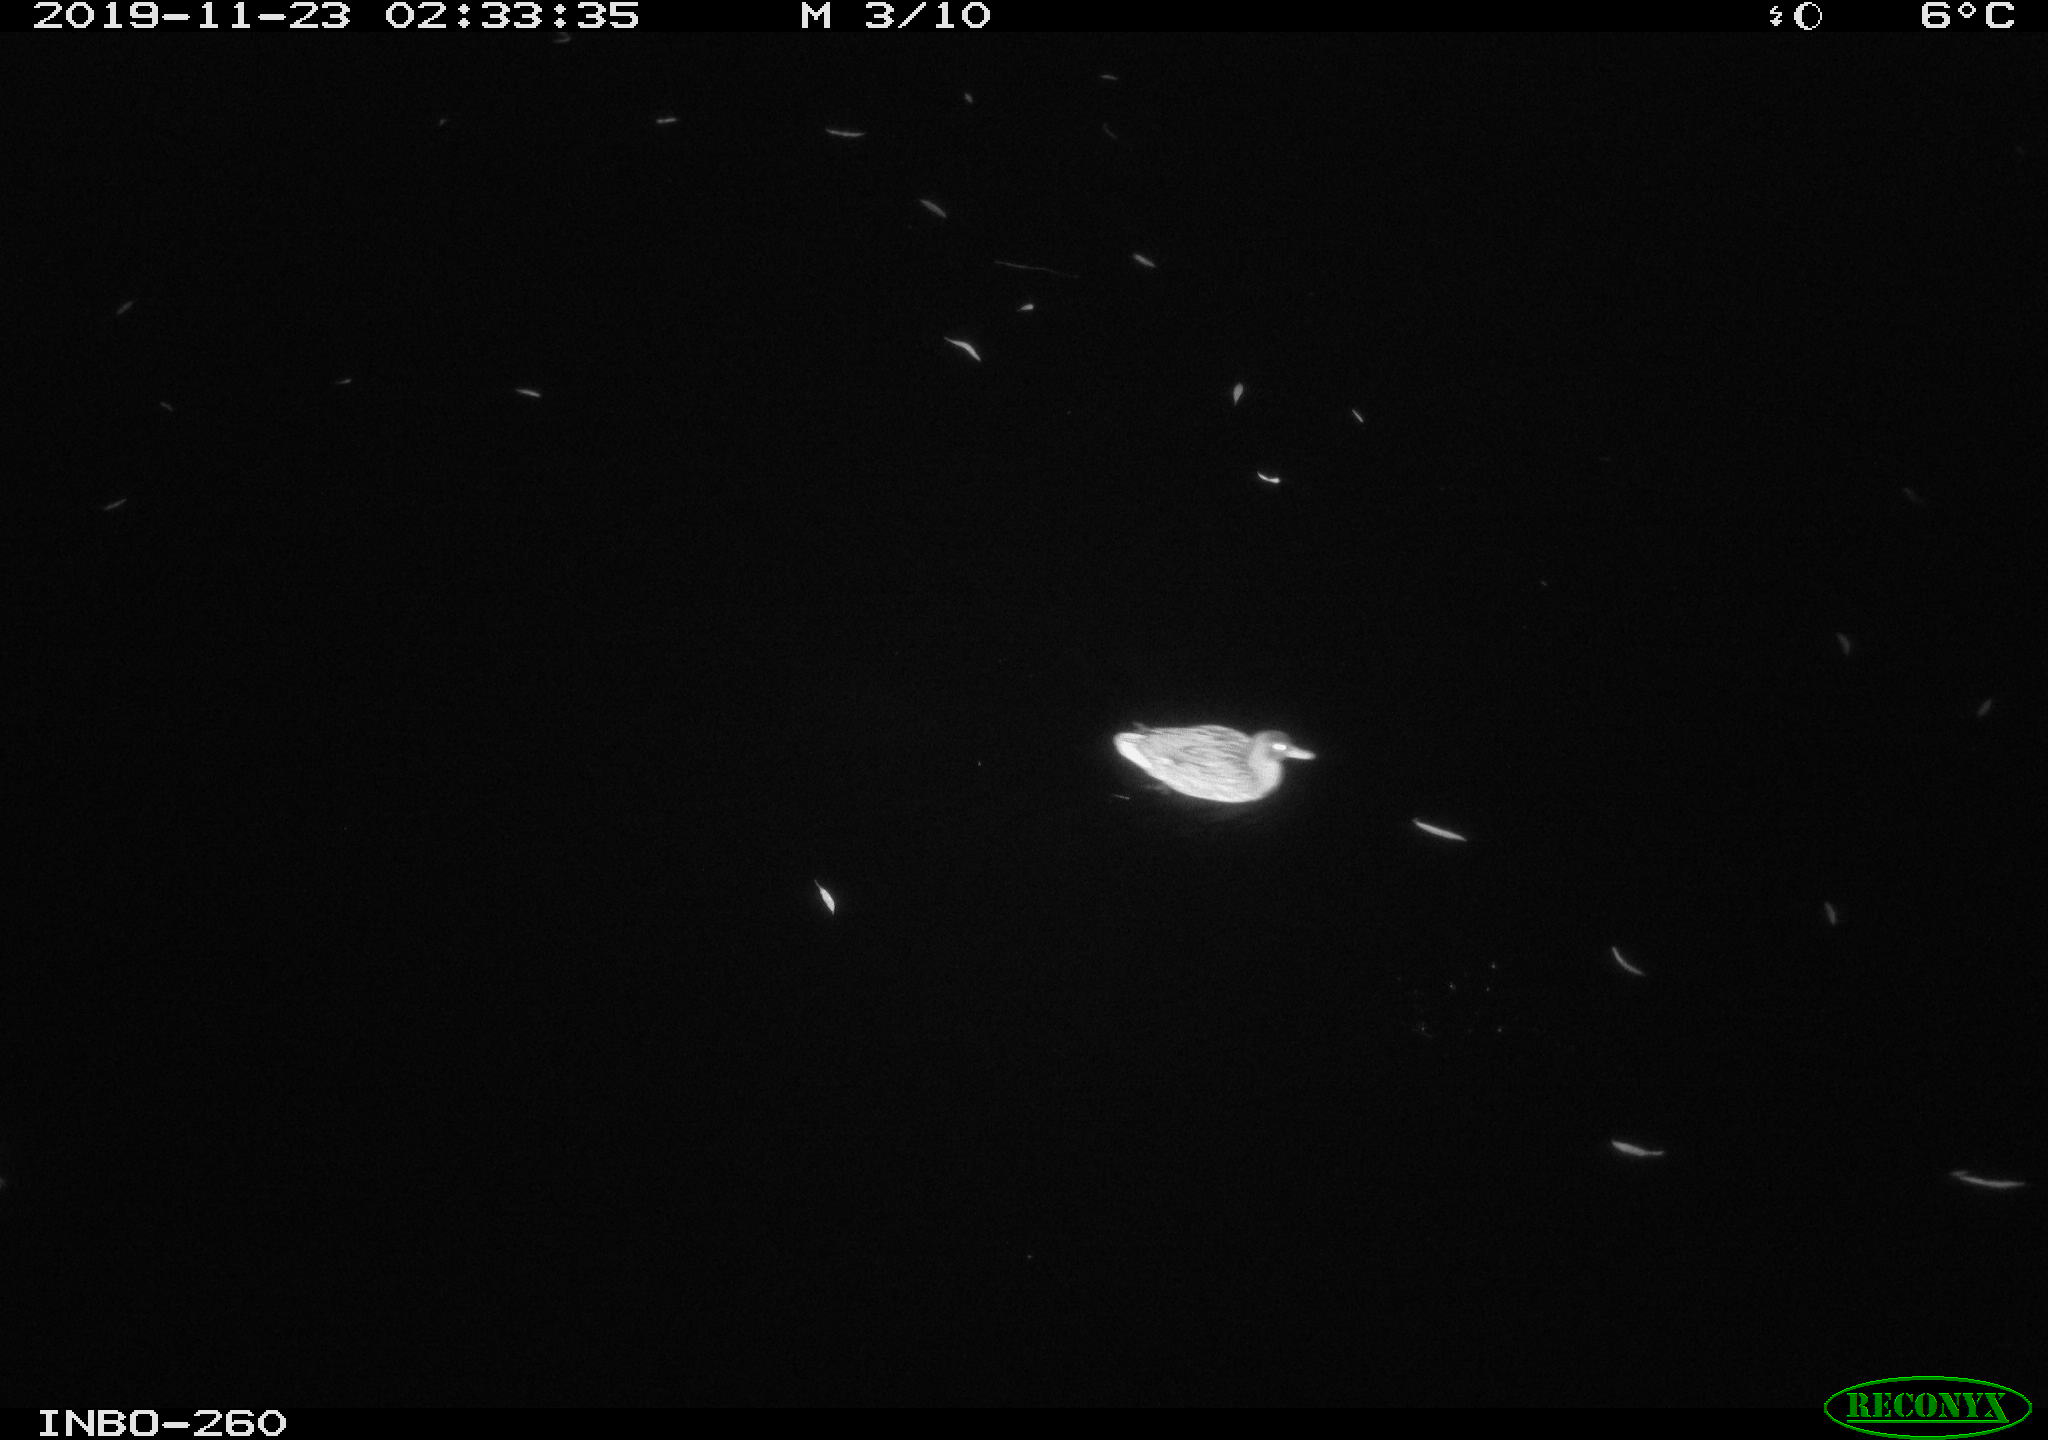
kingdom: Animalia
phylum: Chordata
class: Aves
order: Anseriformes
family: Anatidae
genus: Anas
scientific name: Anas platyrhynchos
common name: Mallard
